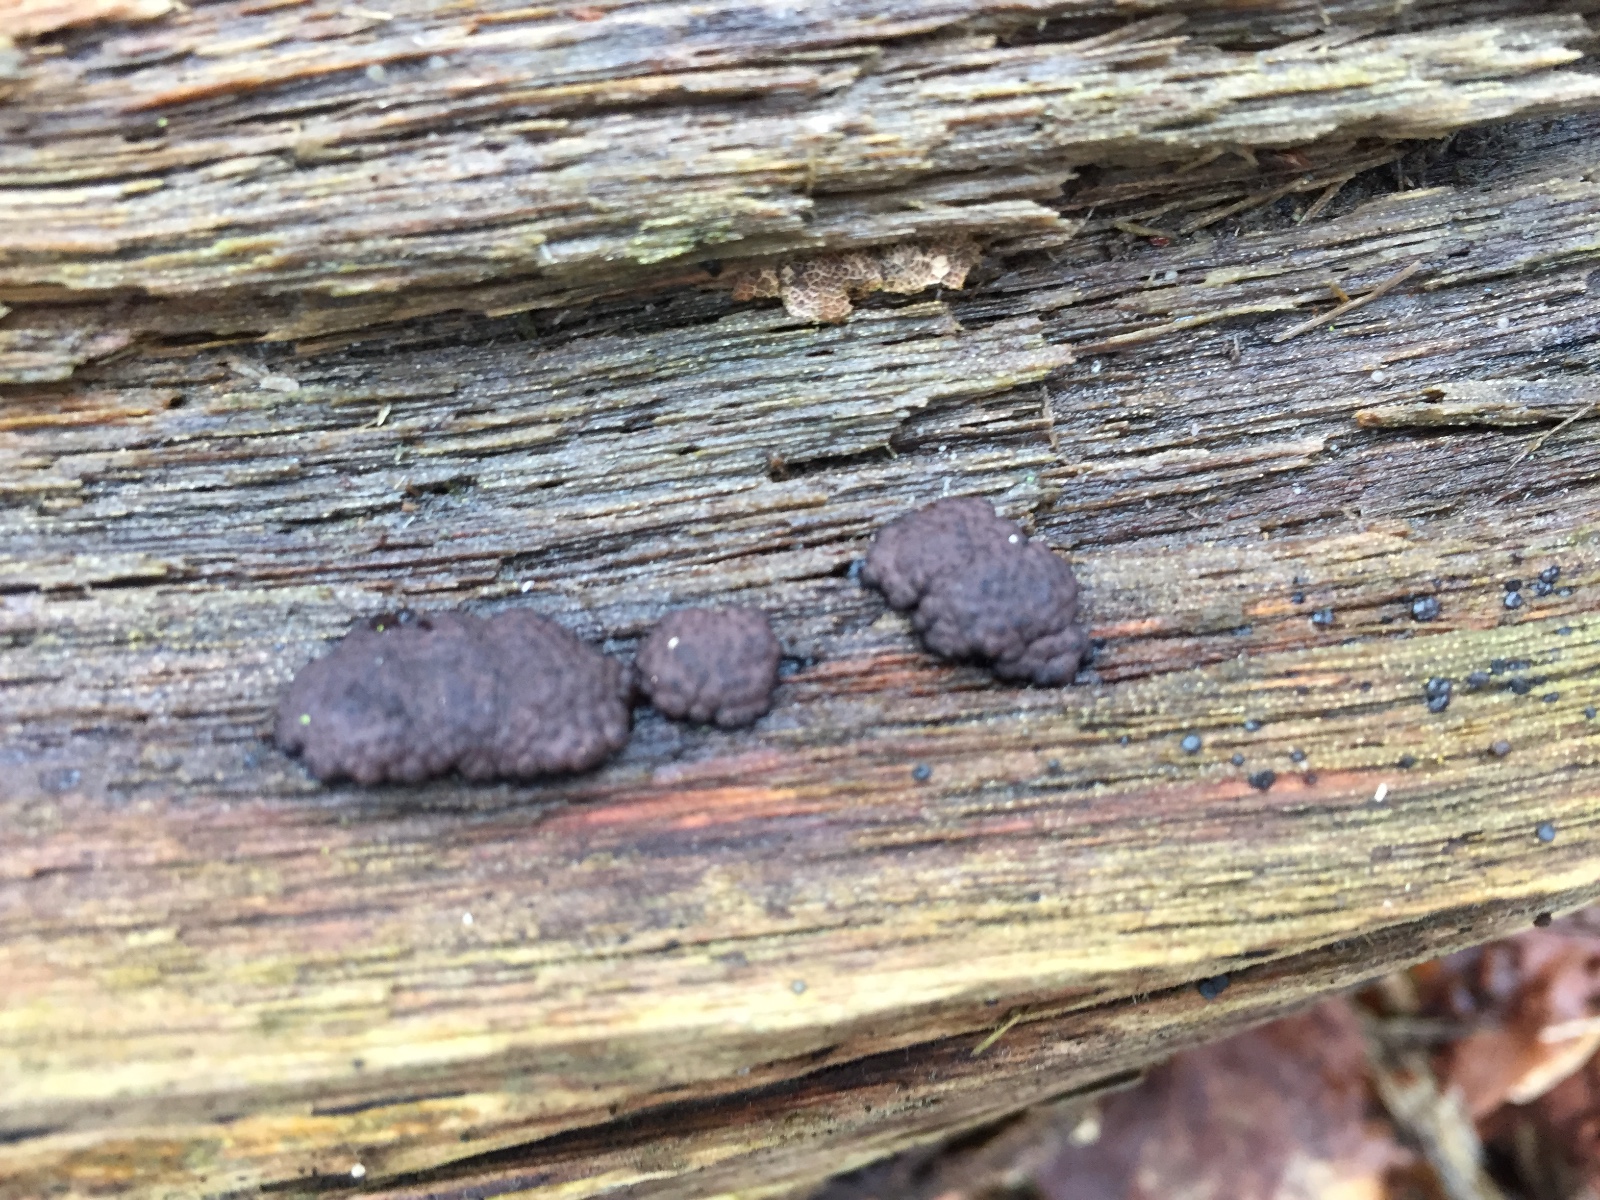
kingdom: Fungi
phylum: Ascomycota
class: Sordariomycetes
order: Xylariales
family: Hypoxylaceae
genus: Jackrogersella
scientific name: Jackrogersella multiformis
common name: foranderlig kulbær
